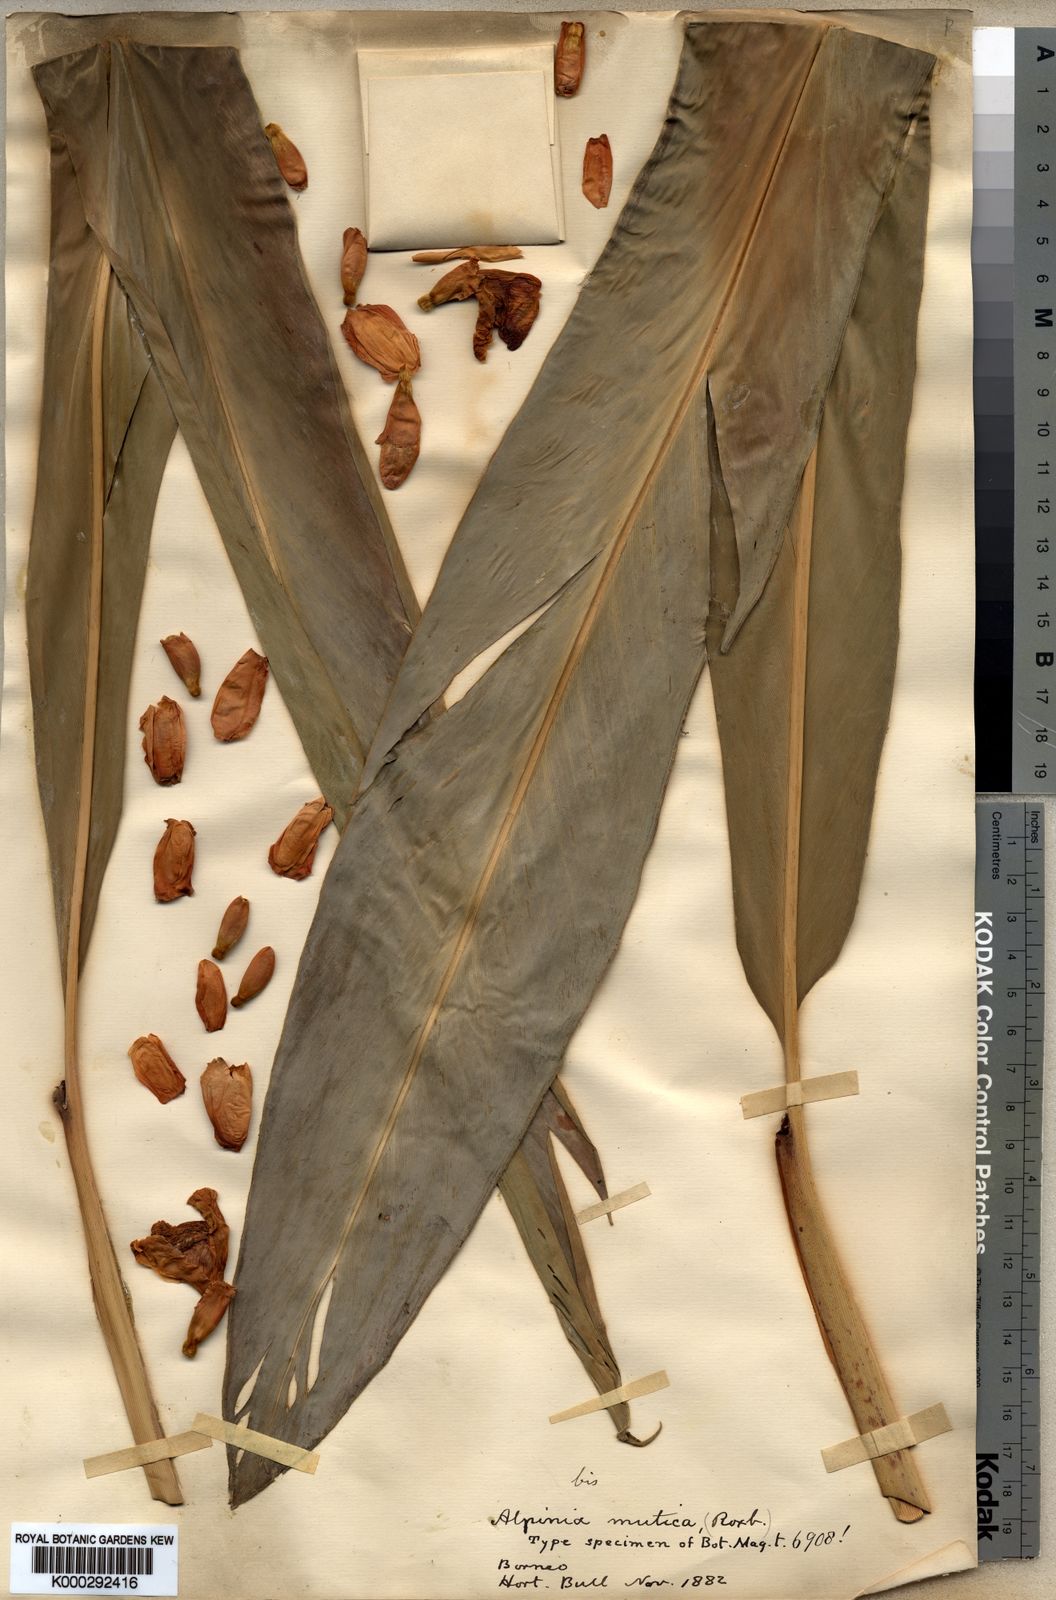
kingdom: Plantae
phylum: Tracheophyta
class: Liliopsida
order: Zingiberales
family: Zingiberaceae
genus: Alpinia
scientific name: Alpinia assimilis
